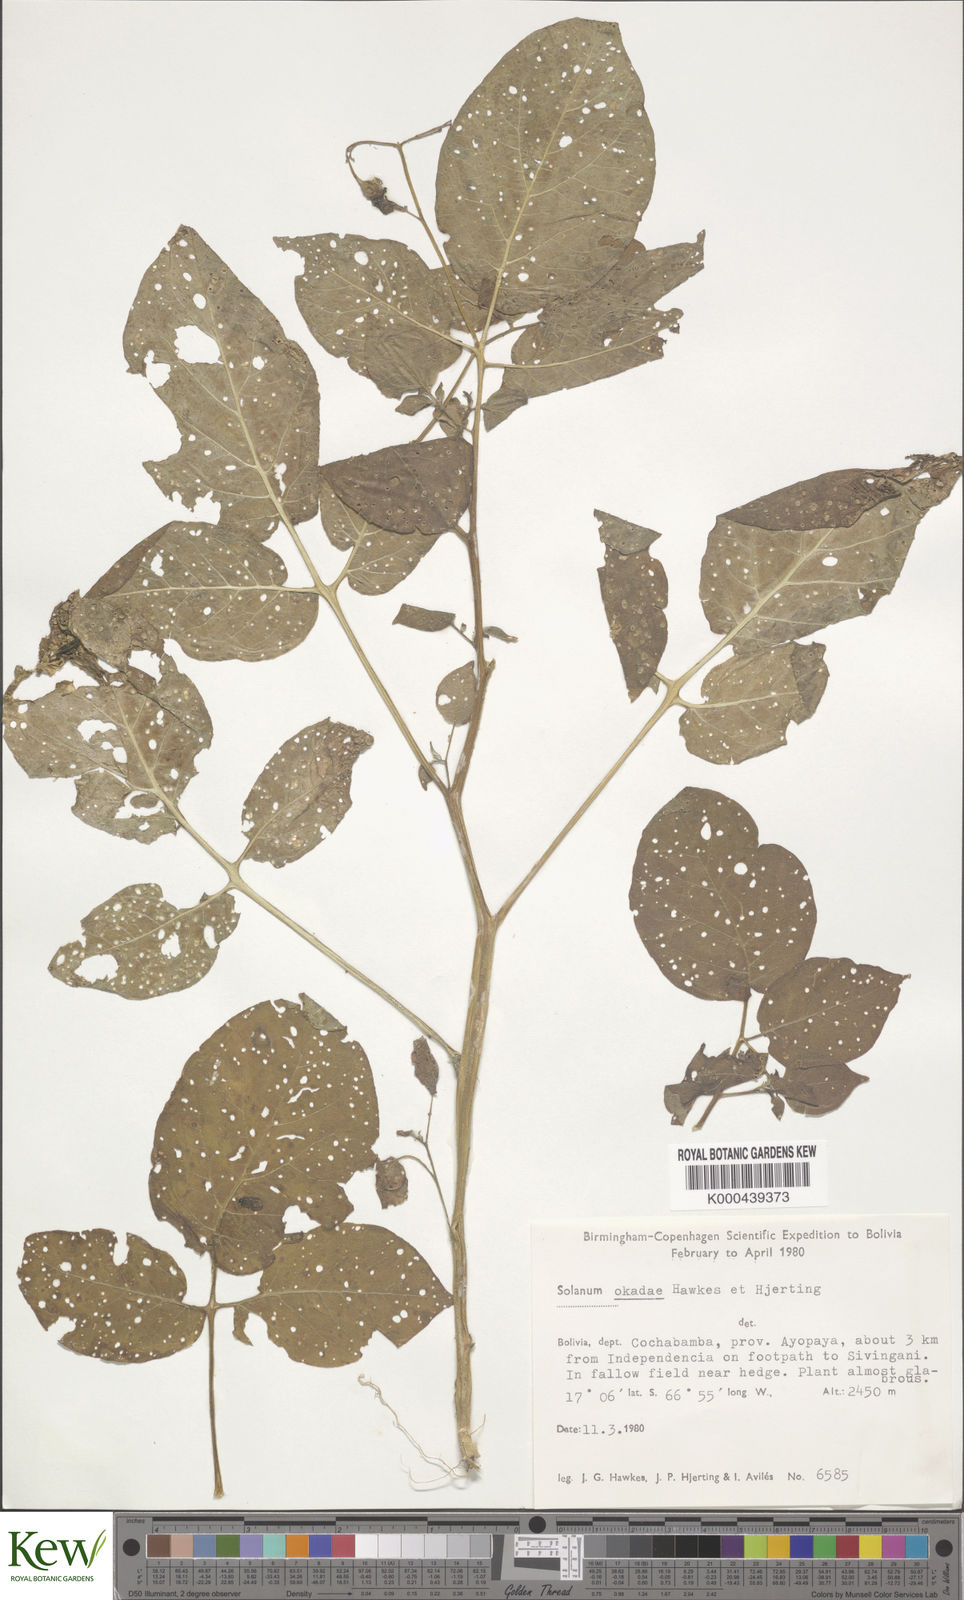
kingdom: Plantae
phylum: Tracheophyta
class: Magnoliopsida
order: Solanales
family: Solanaceae
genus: Solanum
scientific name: Solanum okadae
